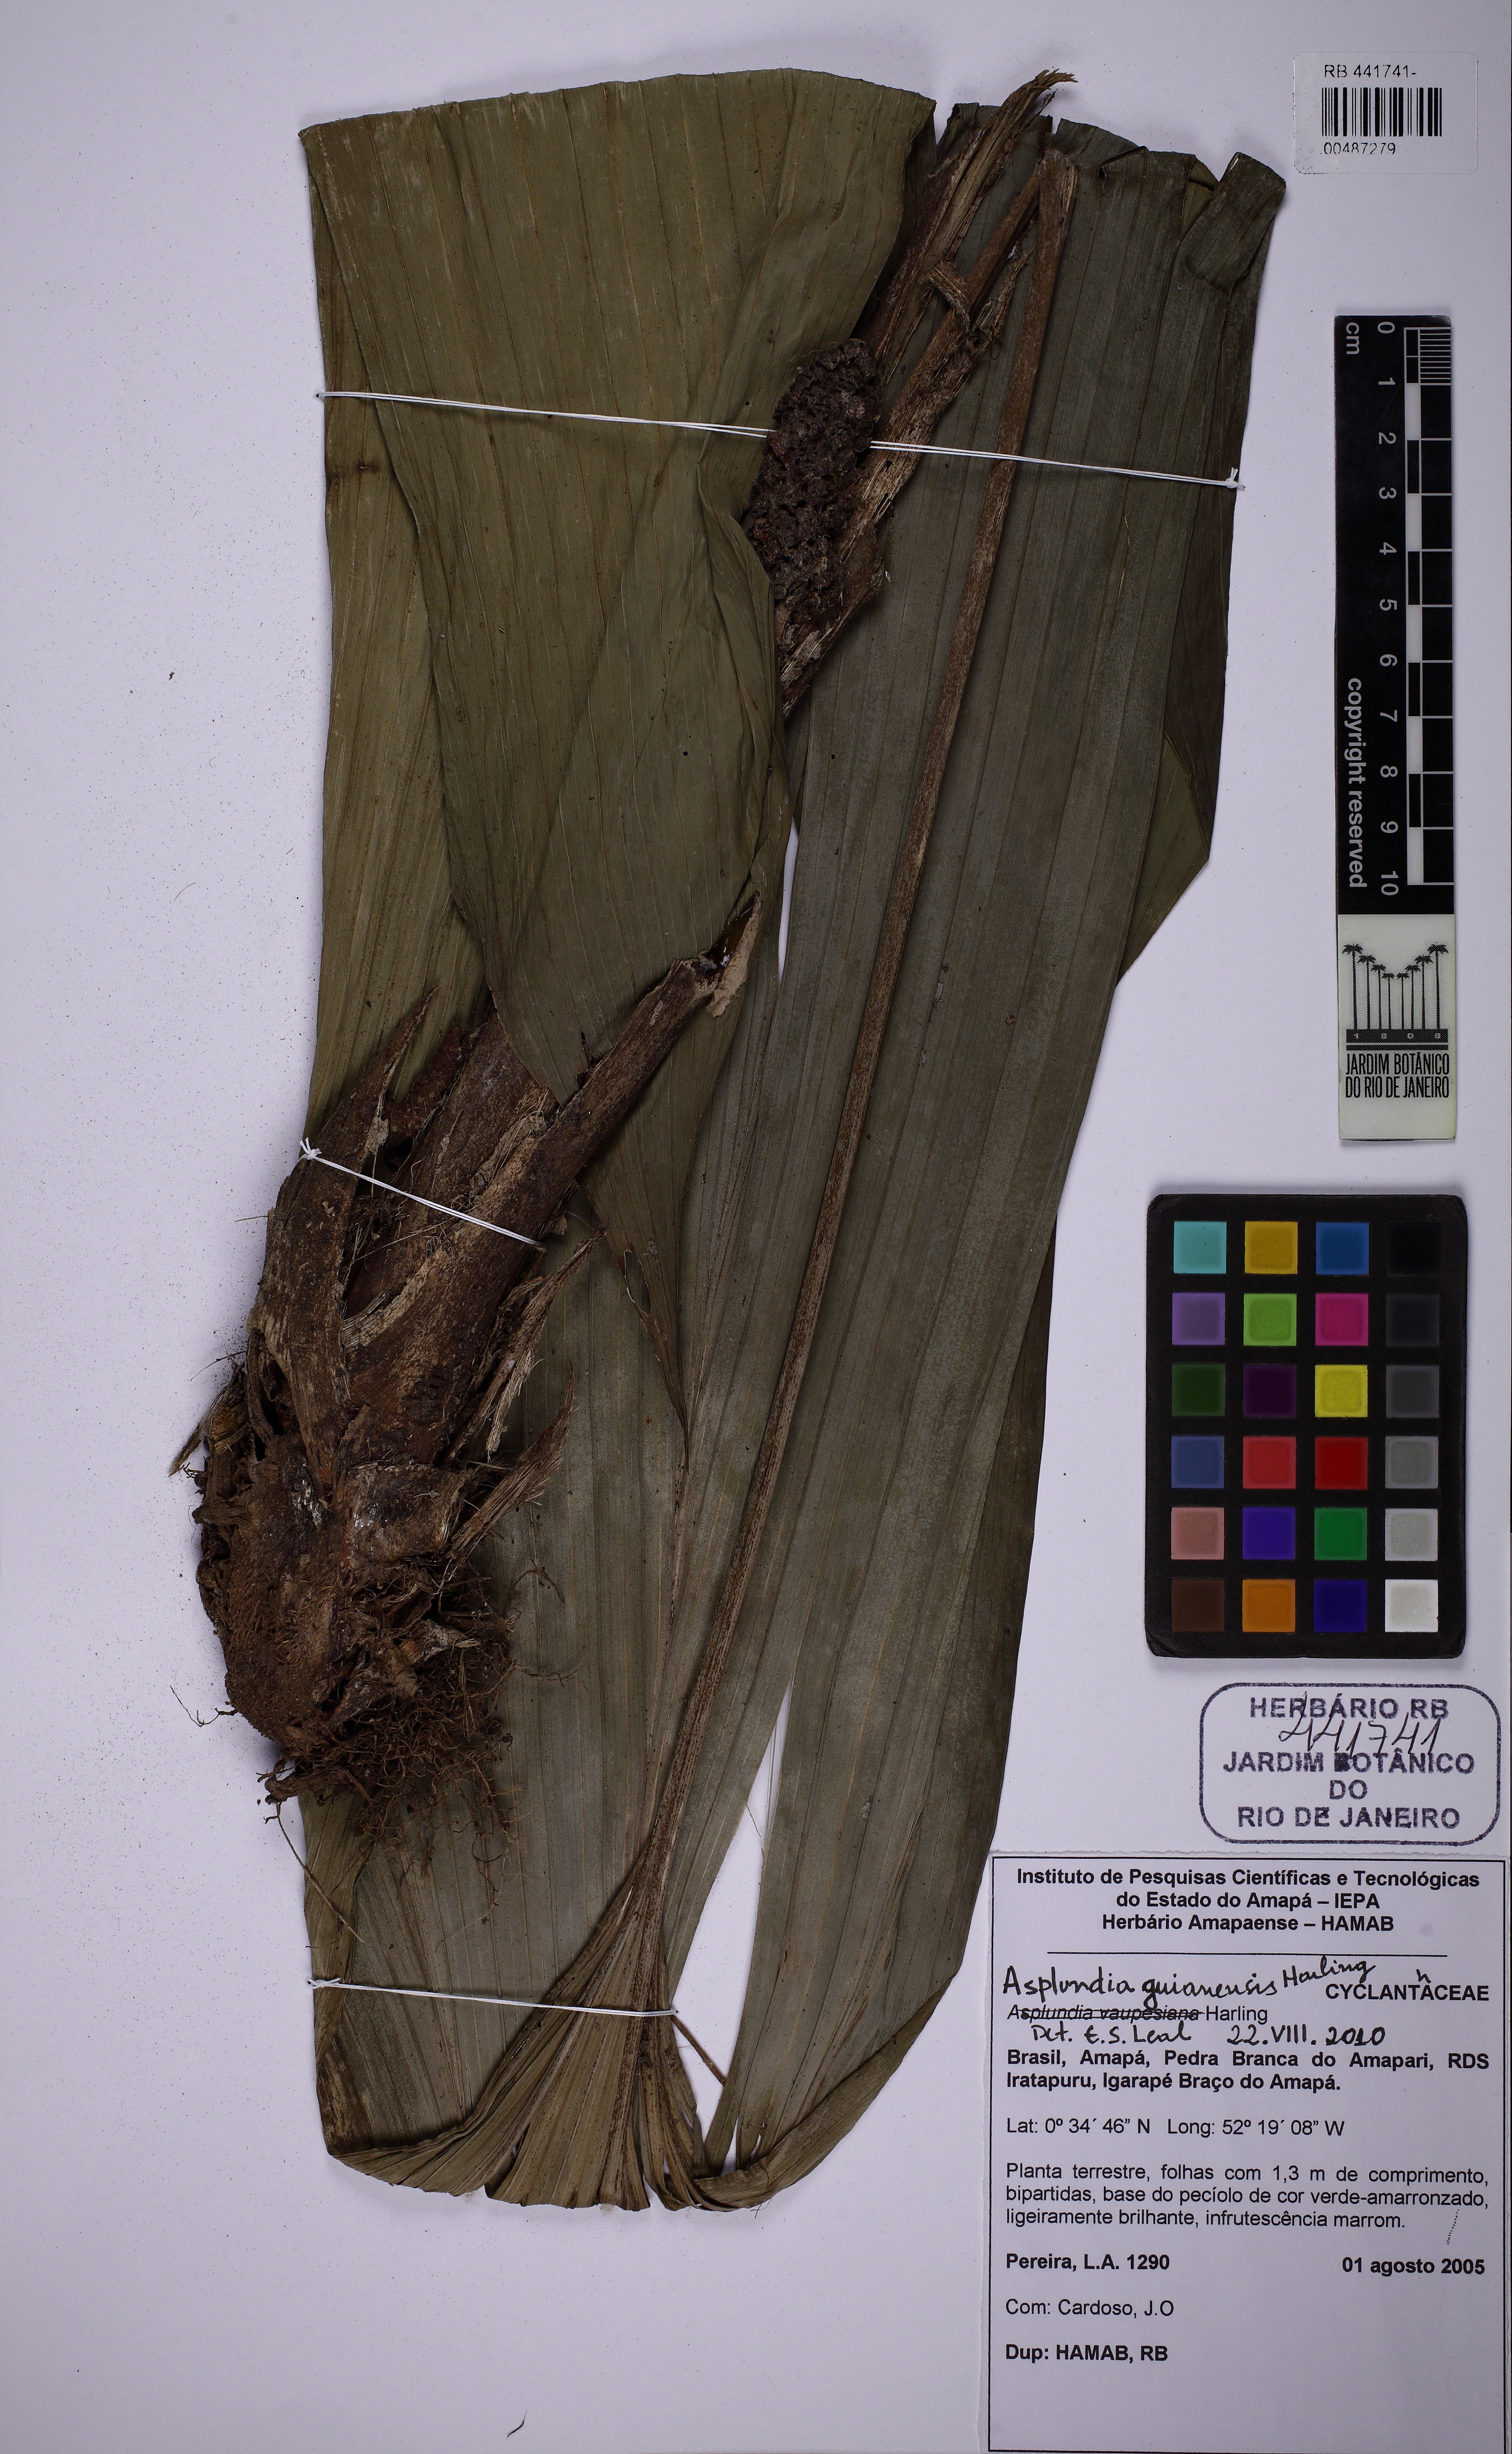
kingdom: Plantae
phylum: Tracheophyta
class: Liliopsida
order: Pandanales
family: Cyclanthaceae
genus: Asplundia
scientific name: Asplundia brachyphylla
